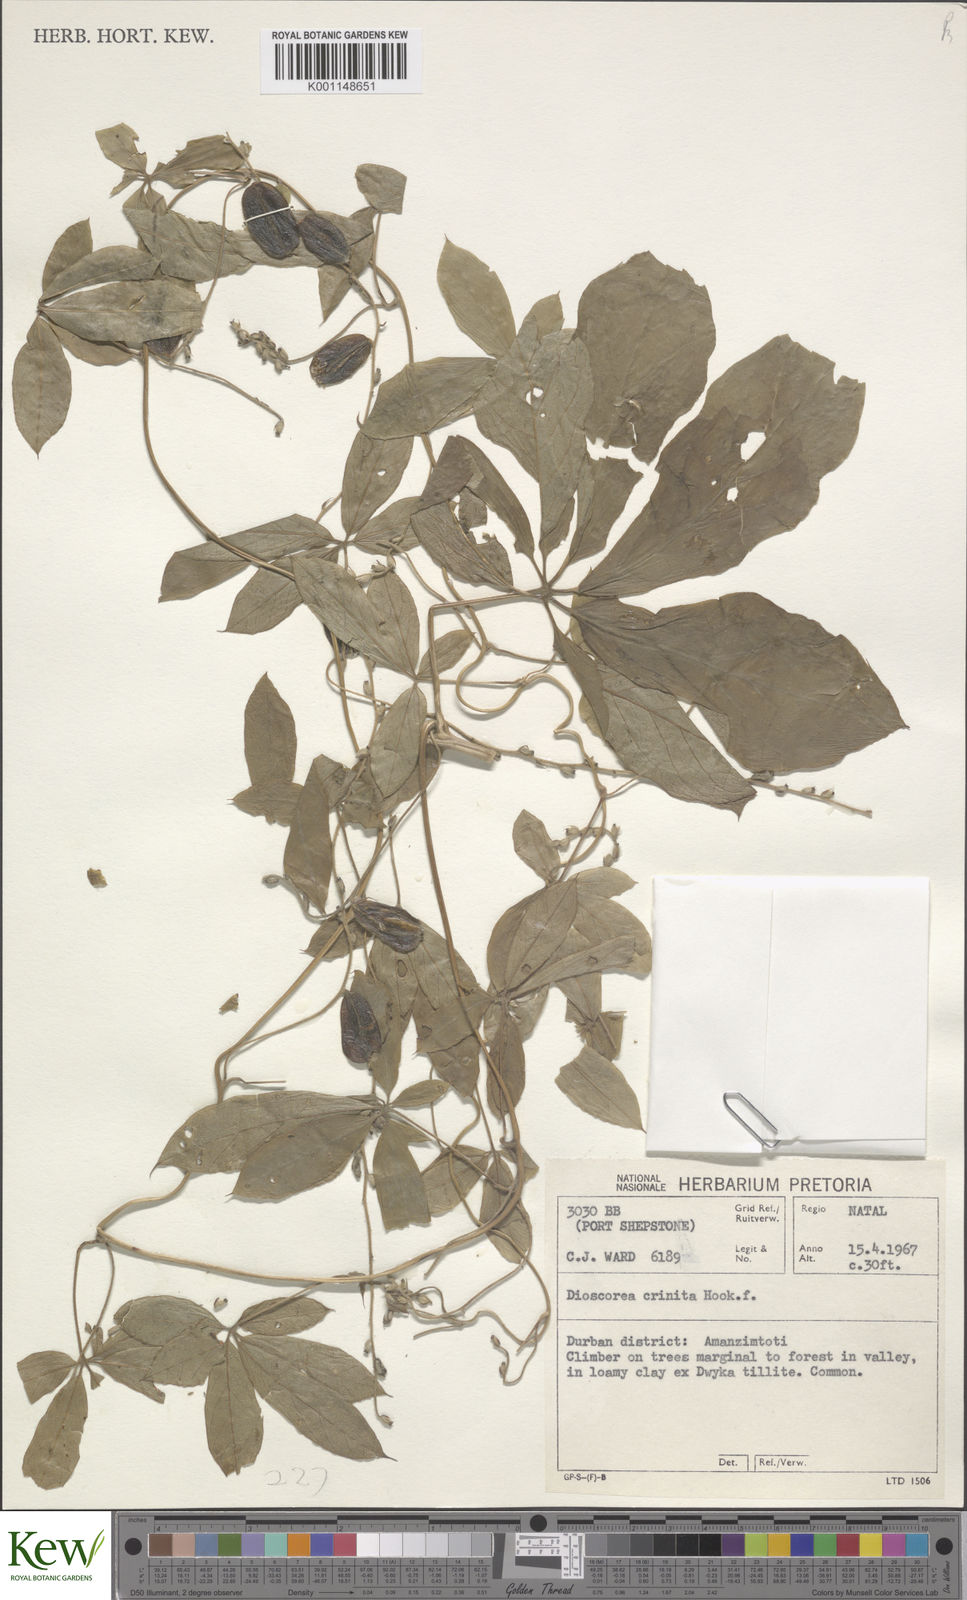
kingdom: Plantae
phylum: Tracheophyta
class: Liliopsida
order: Dioscoreales
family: Dioscoreaceae
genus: Dioscorea
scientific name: Dioscorea quartiniana
